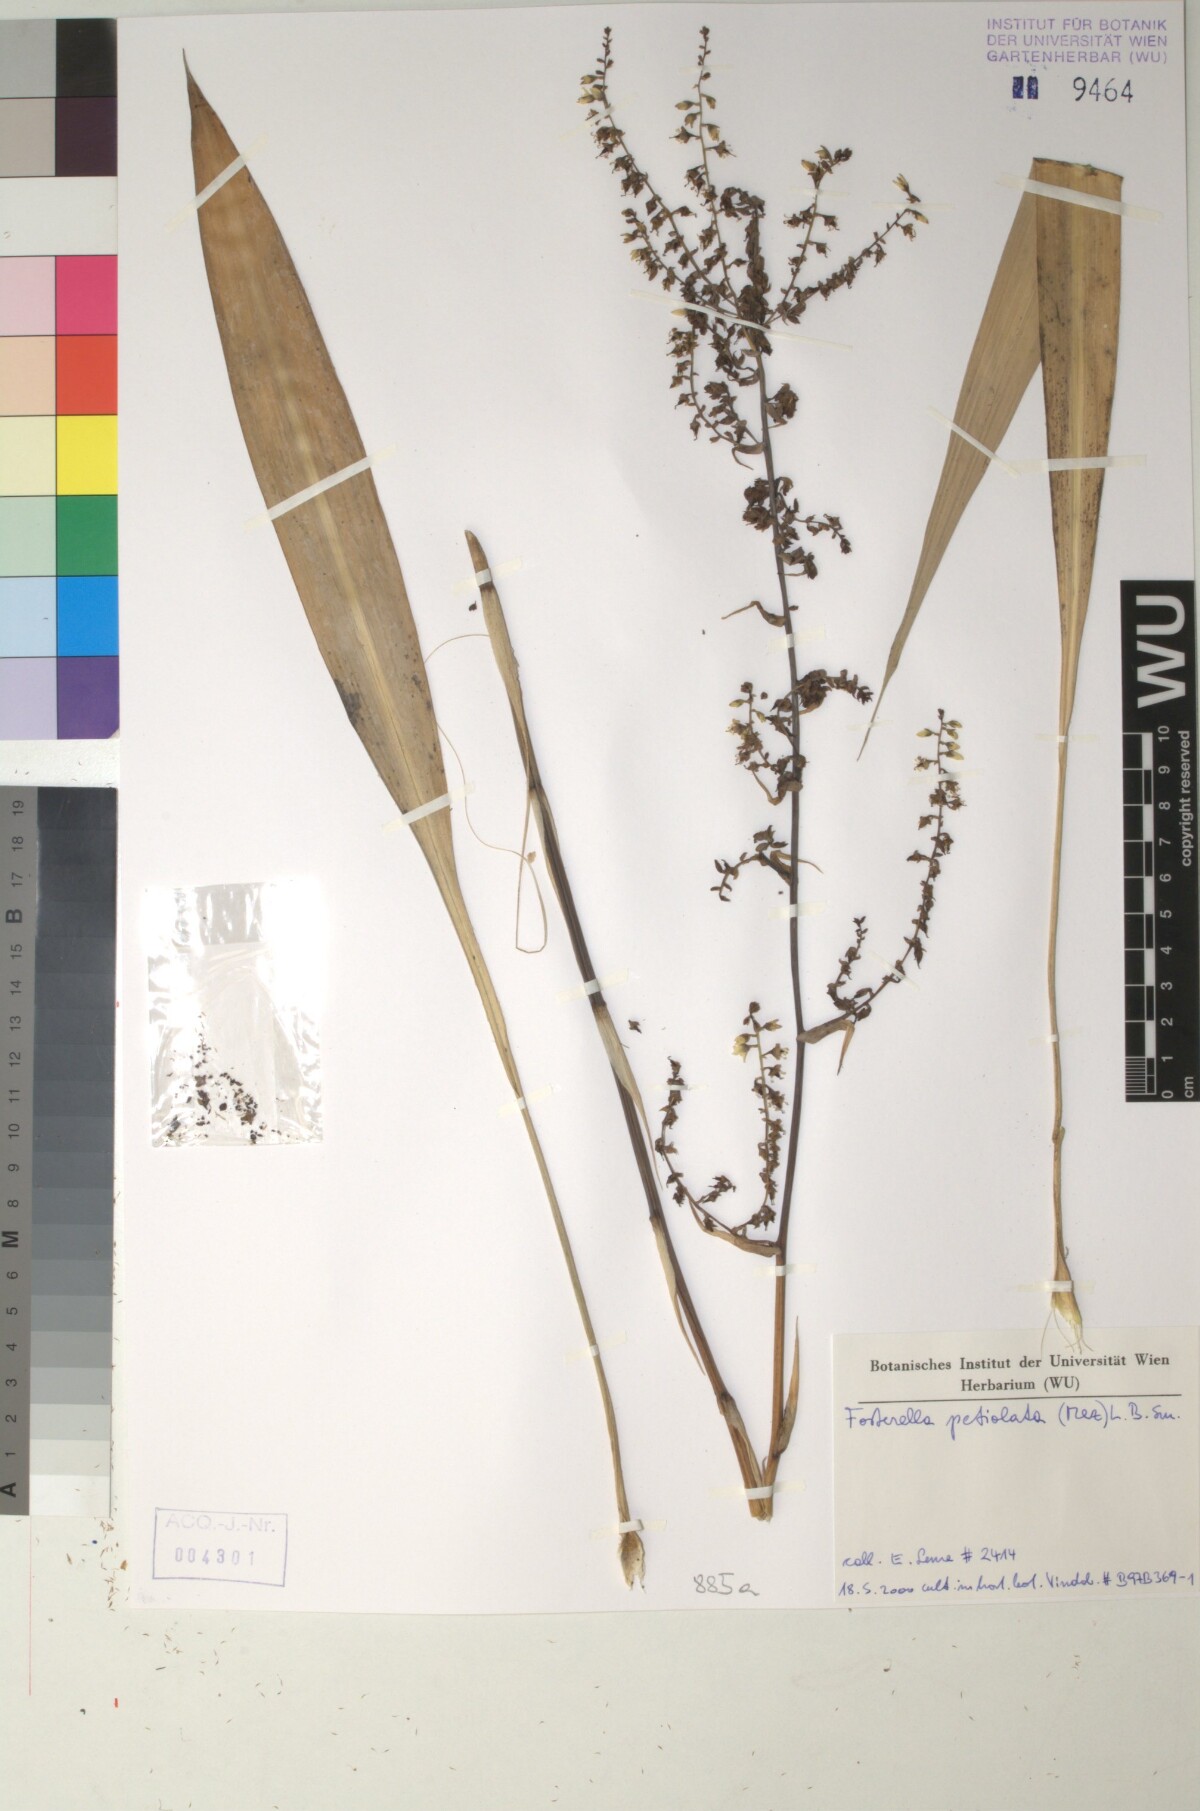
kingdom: Plantae
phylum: Tracheophyta
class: Liliopsida
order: Poales
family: Bromeliaceae
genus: Fosterella
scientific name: Fosterella petiolata
